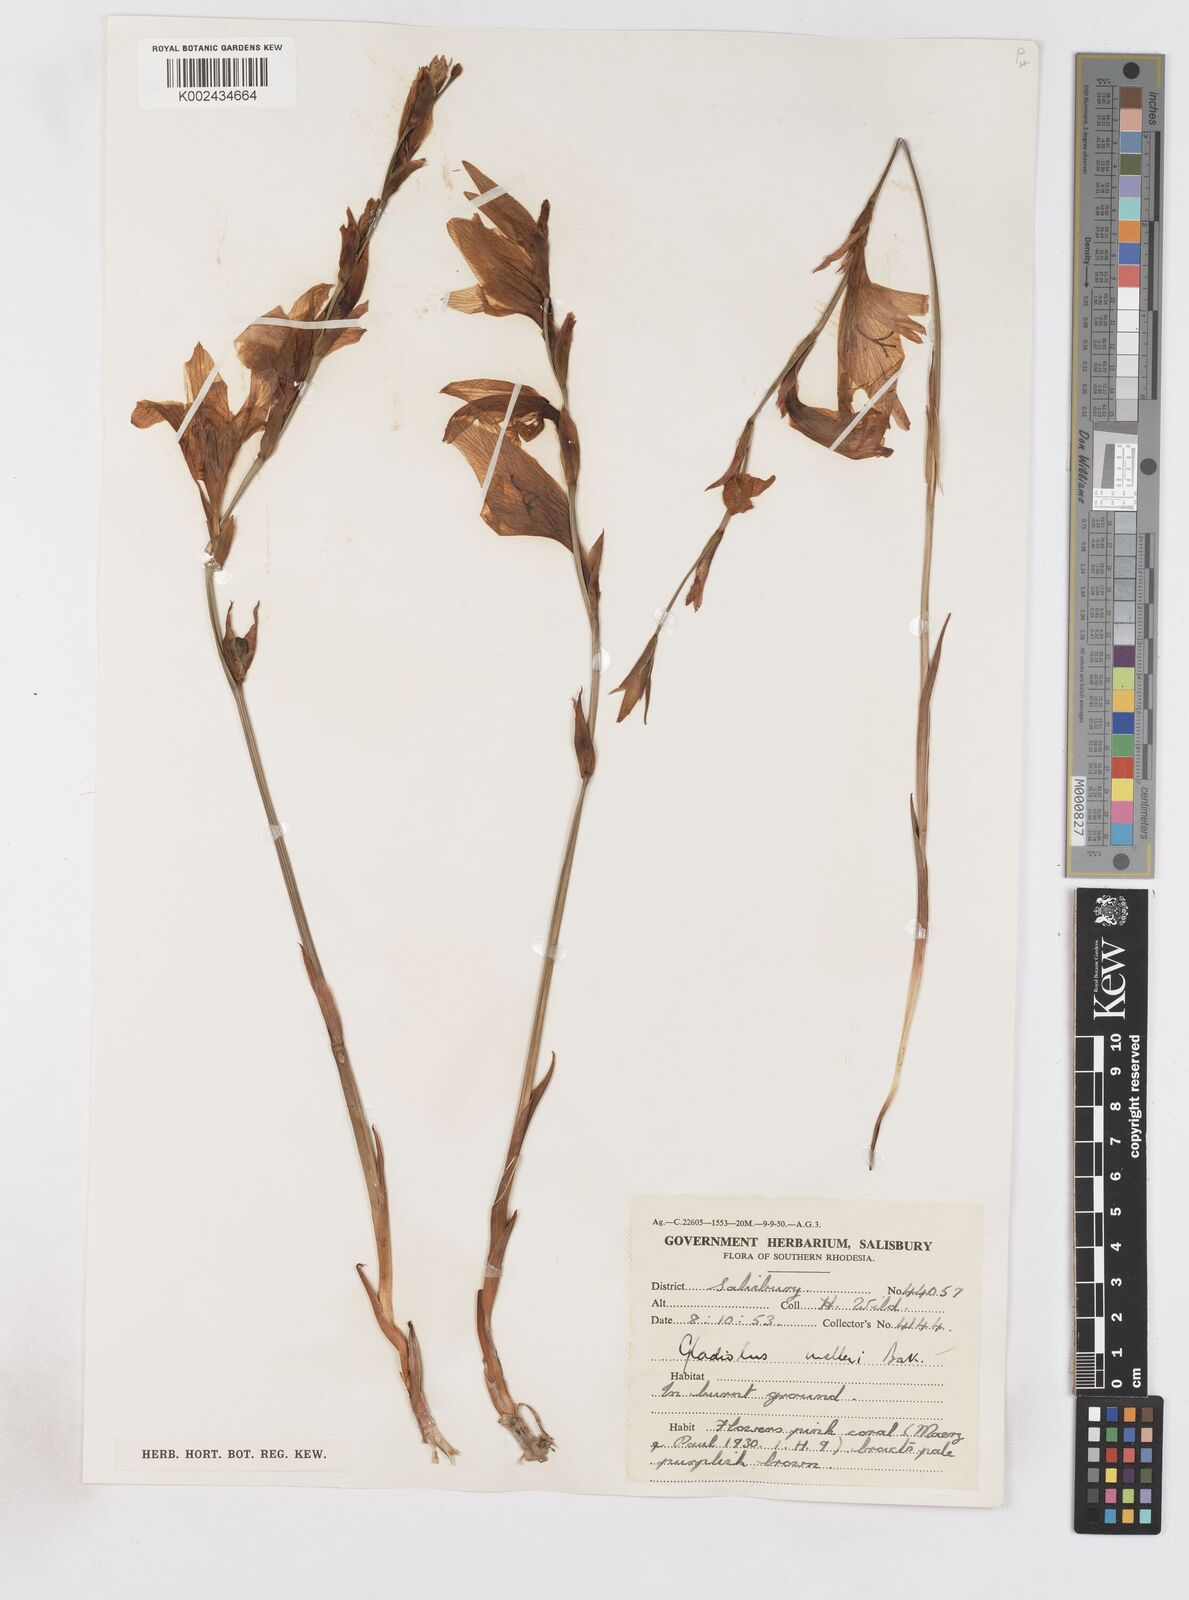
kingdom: Plantae
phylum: Tracheophyta
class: Liliopsida
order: Asparagales
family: Iridaceae
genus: Gladiolus
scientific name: Gladiolus melleri
